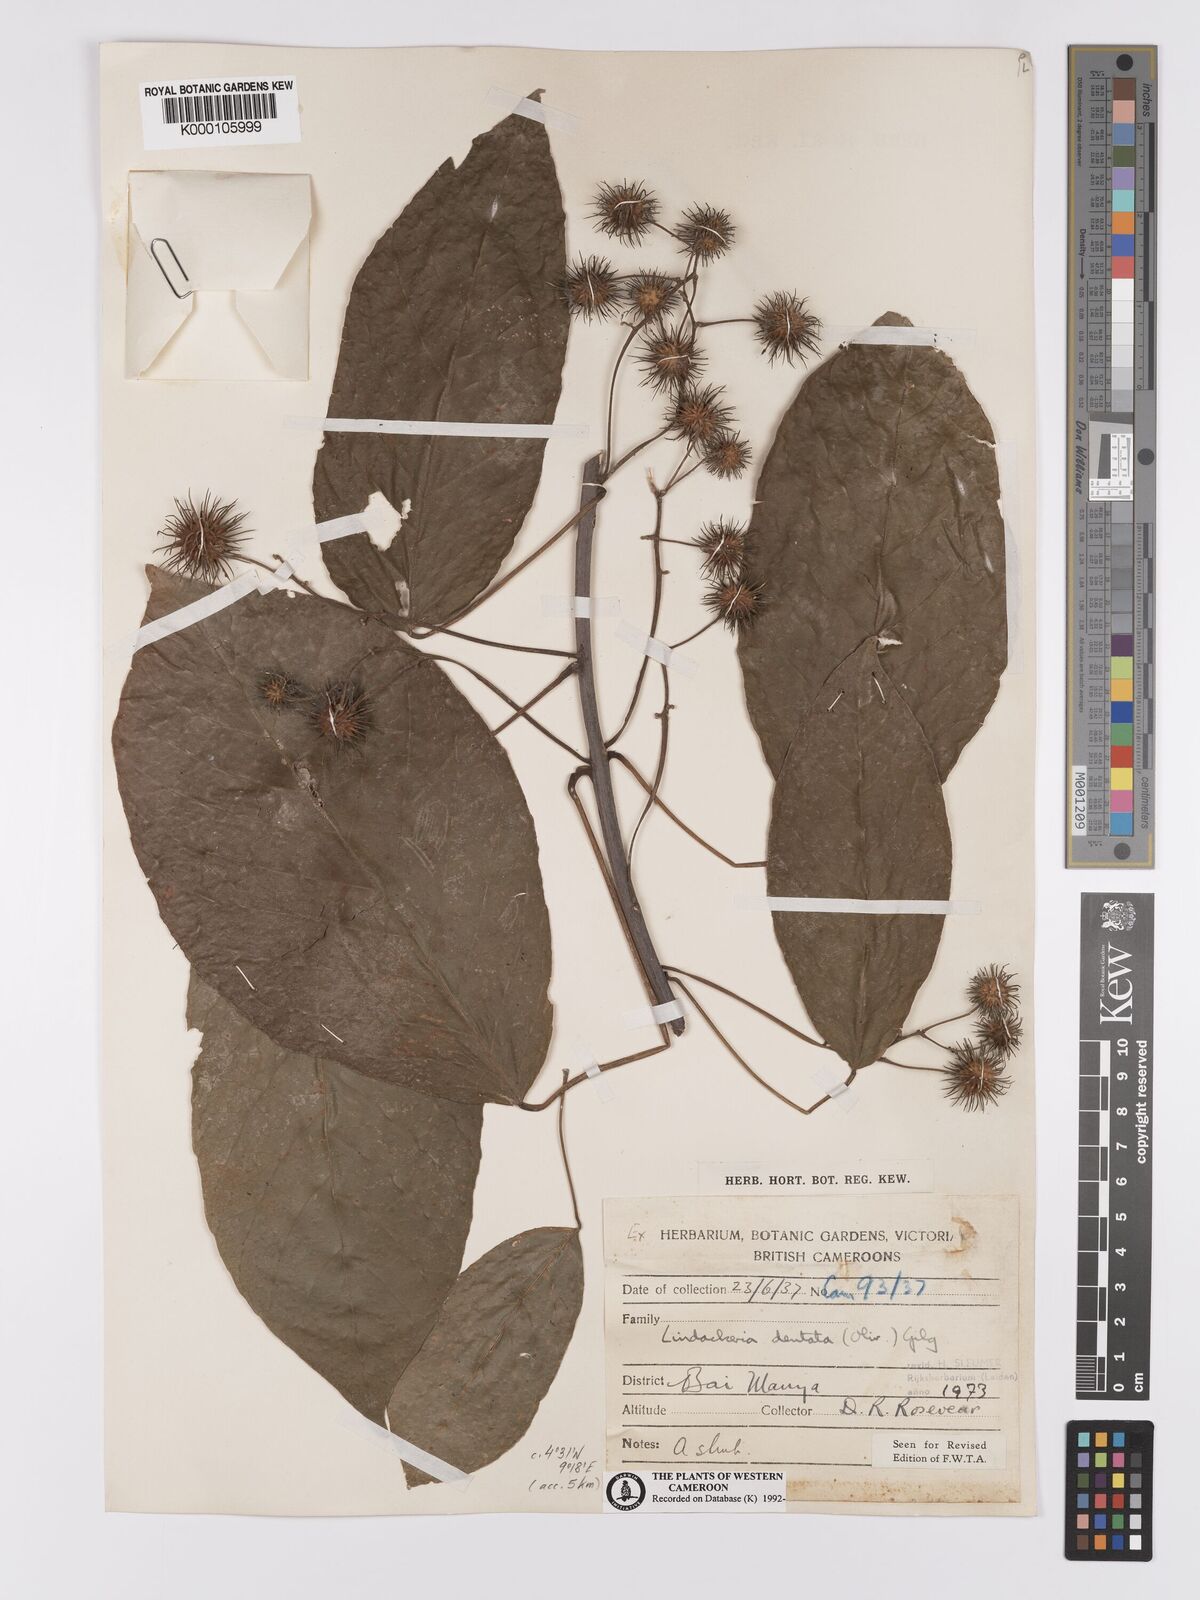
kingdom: Plantae
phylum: Tracheophyta
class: Magnoliopsida
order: Malpighiales
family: Achariaceae
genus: Lindackeria
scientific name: Lindackeria dentata
